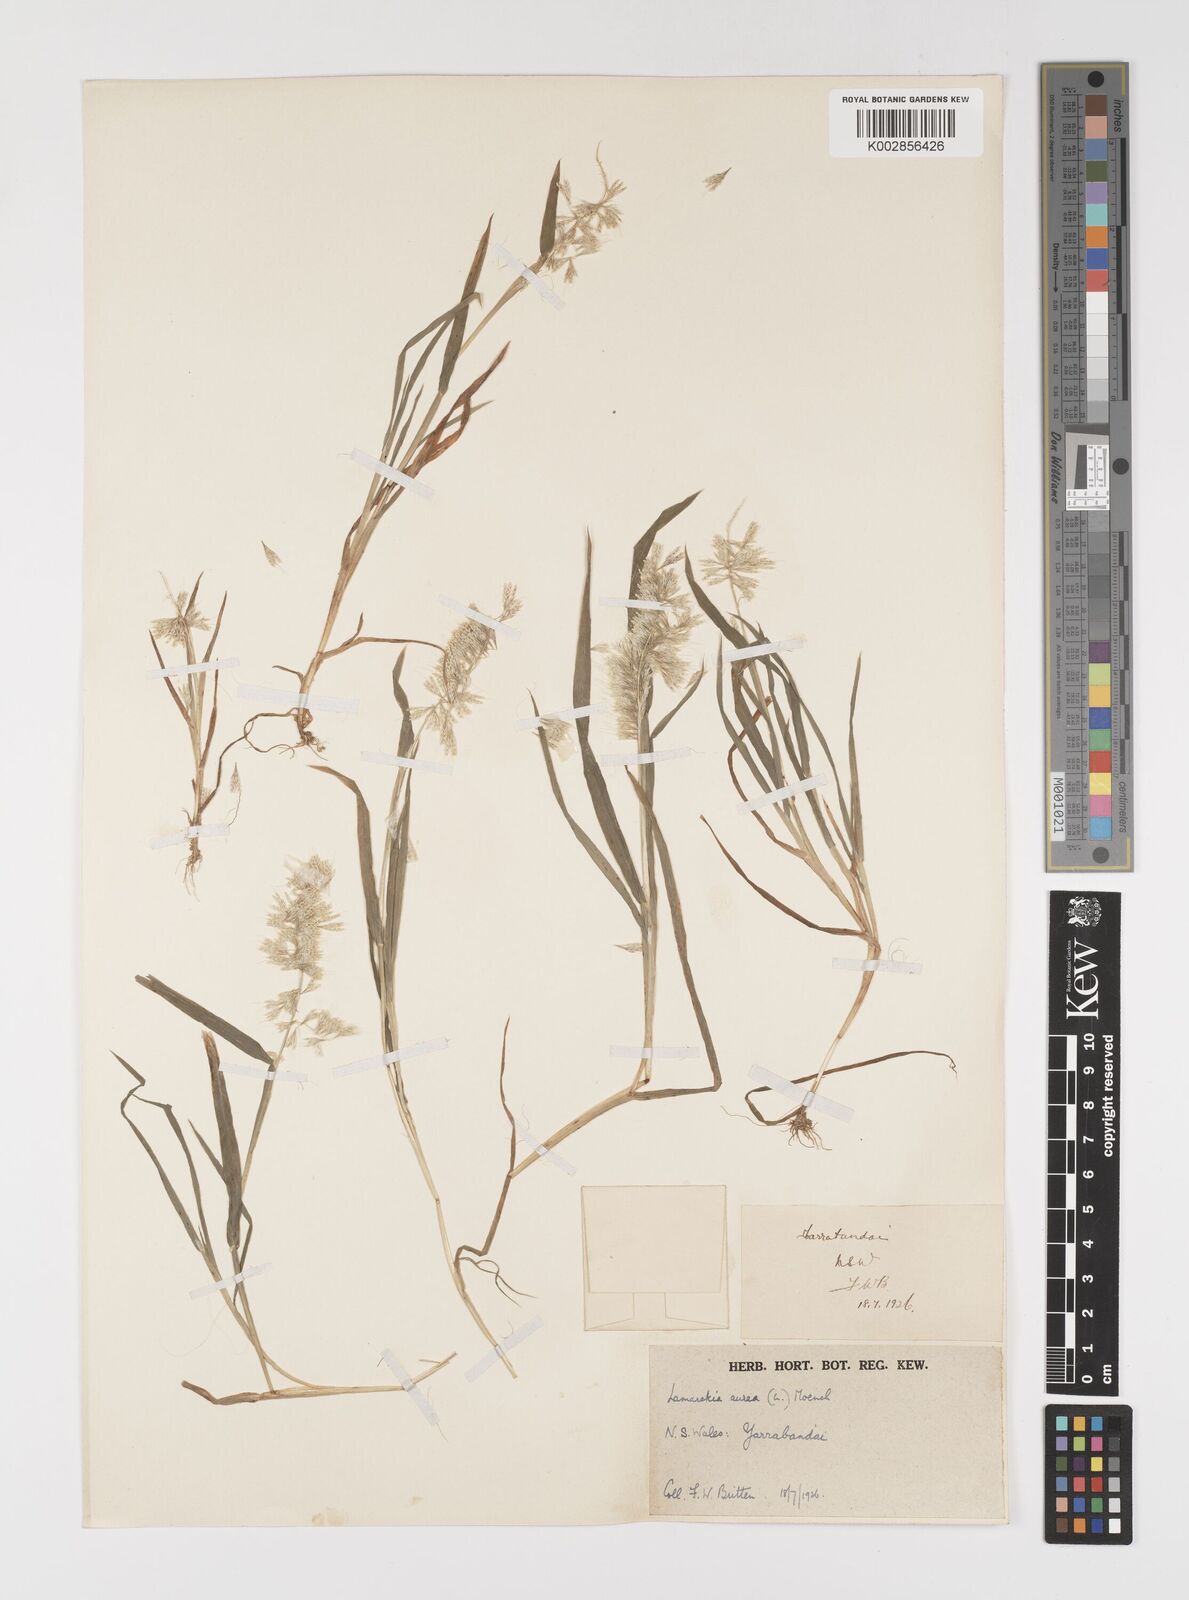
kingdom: Plantae
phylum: Tracheophyta
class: Liliopsida
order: Poales
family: Poaceae
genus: Lamarckia
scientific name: Lamarckia aurea
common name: Golden dog's-tail
